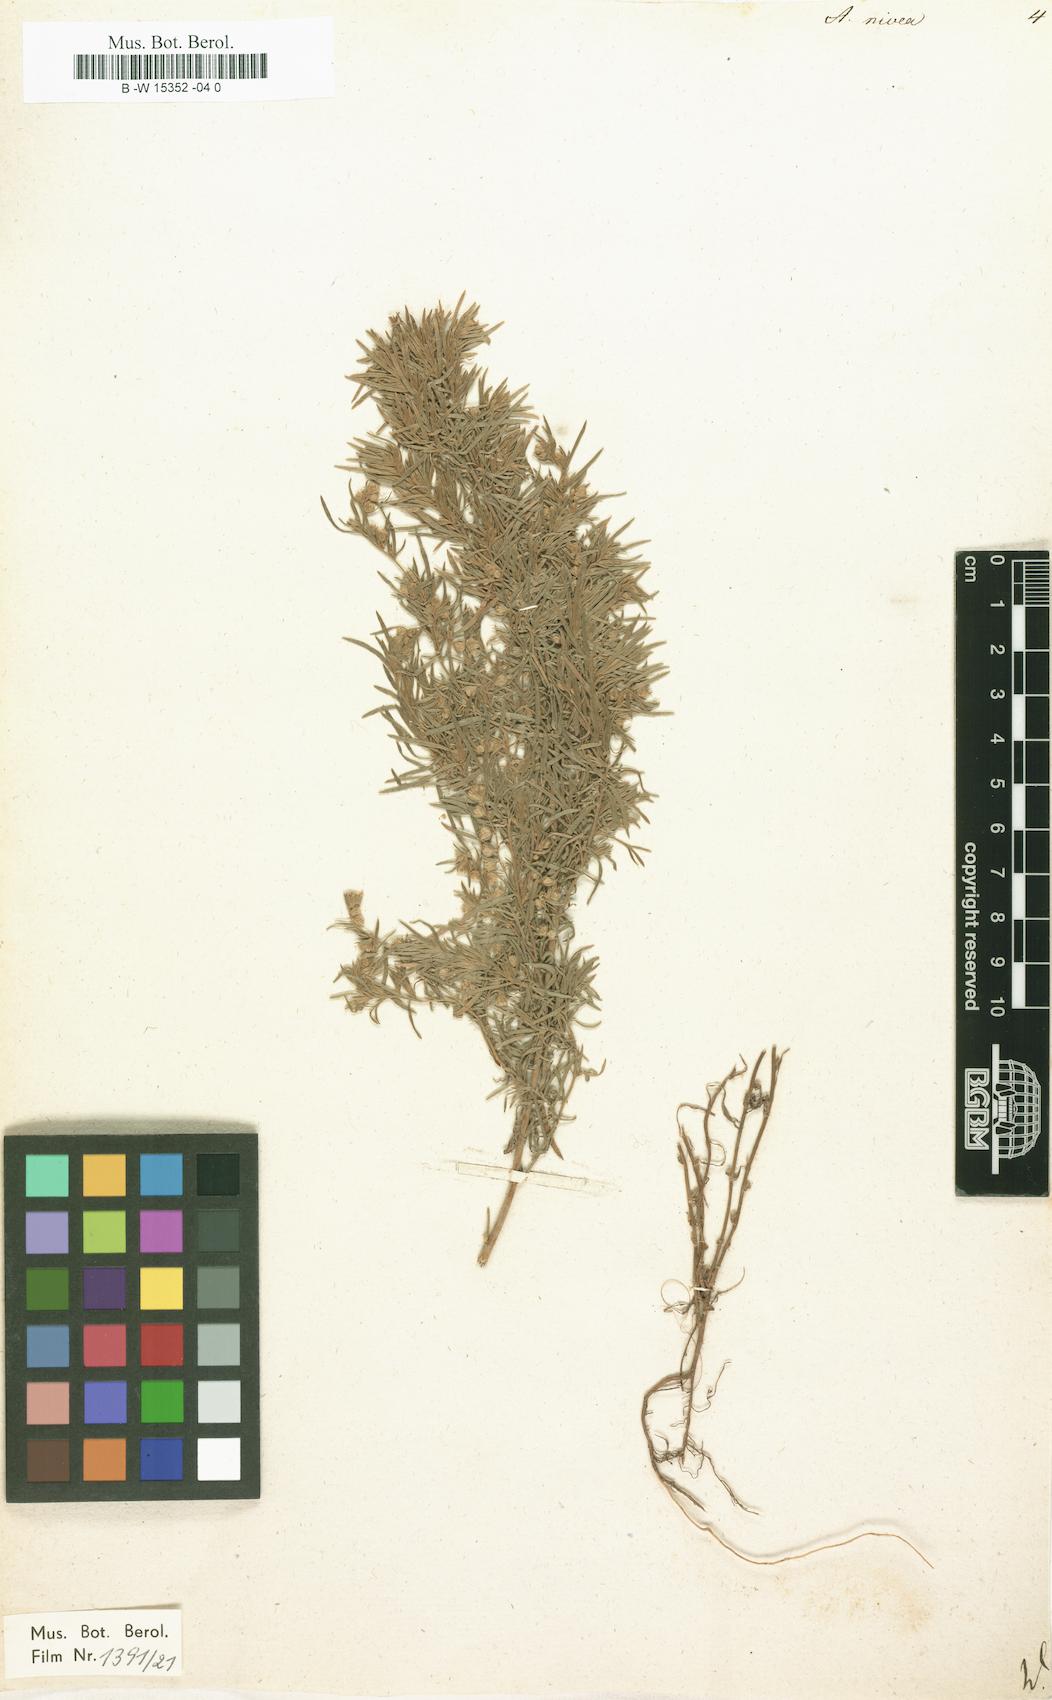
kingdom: Plantae
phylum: Tracheophyta
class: Magnoliopsida
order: Asterales
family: Asteraceae
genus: Artemisia
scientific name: Artemisia austriaca
